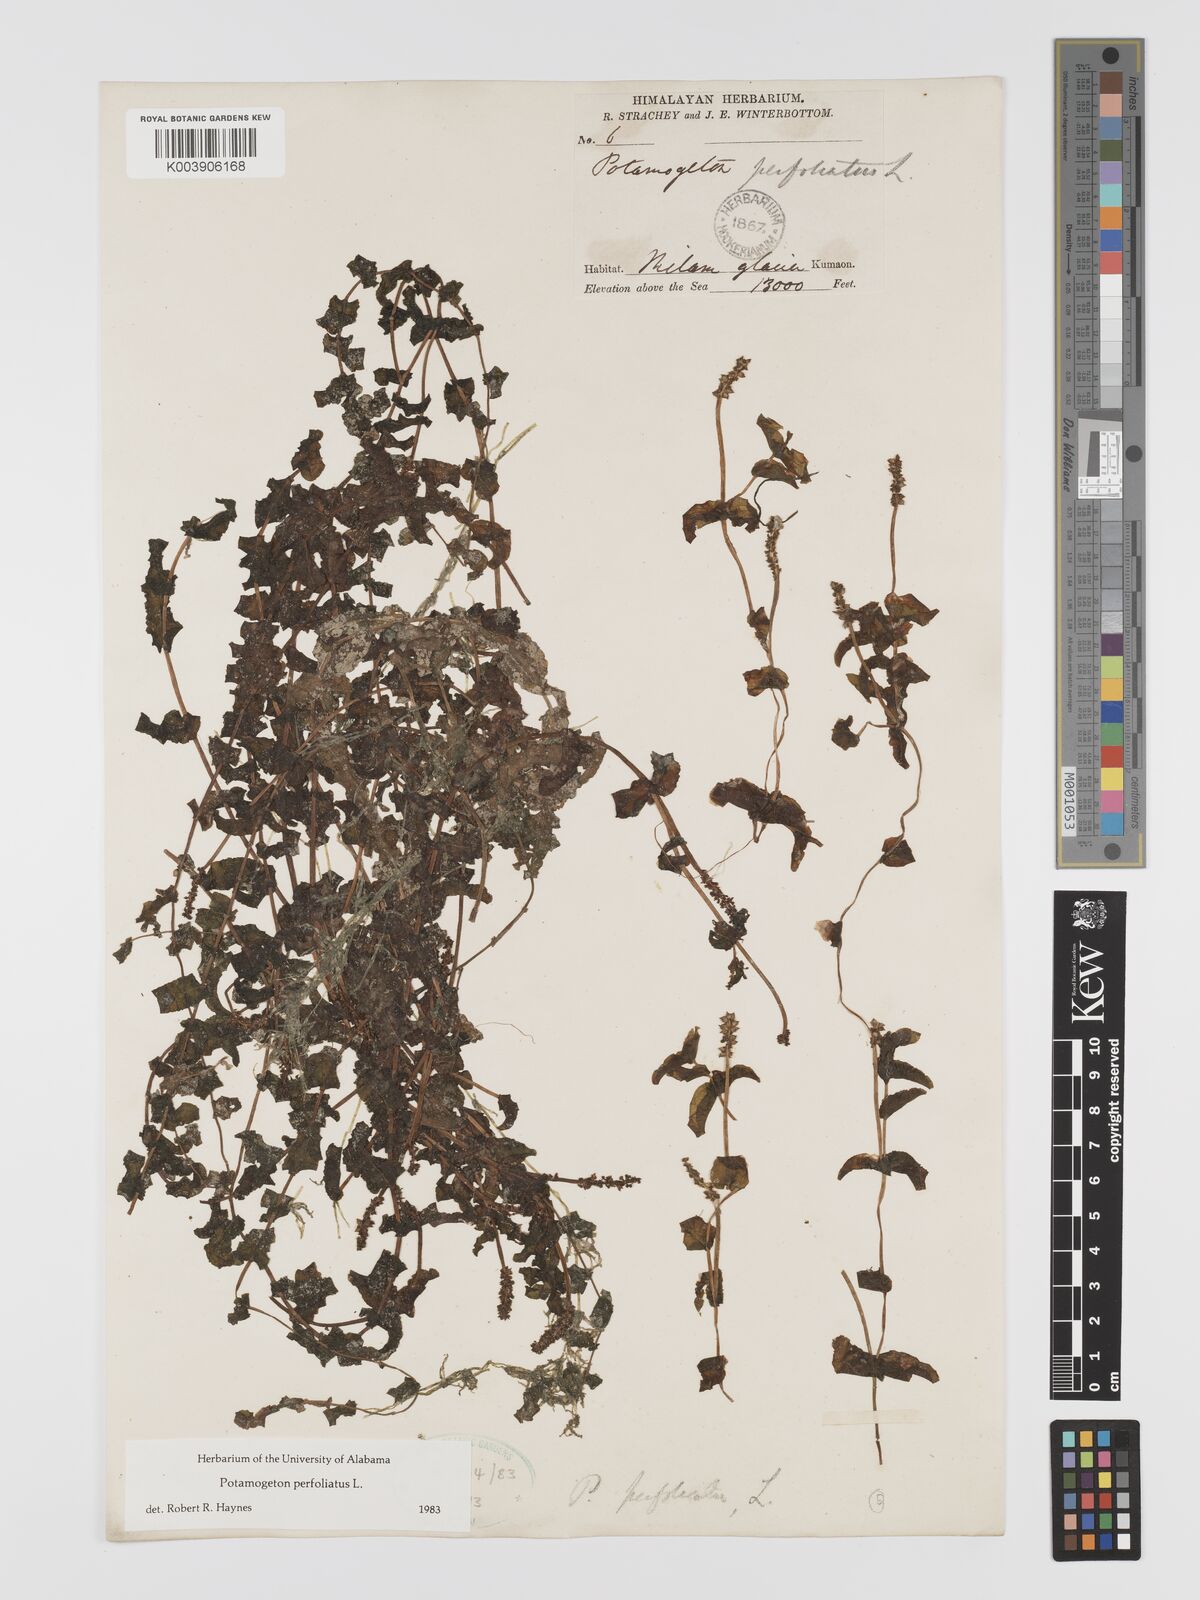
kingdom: Plantae
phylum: Tracheophyta
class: Liliopsida
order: Alismatales
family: Potamogetonaceae
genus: Potamogeton
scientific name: Potamogeton perfoliatus
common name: Perfoliate pondweed
